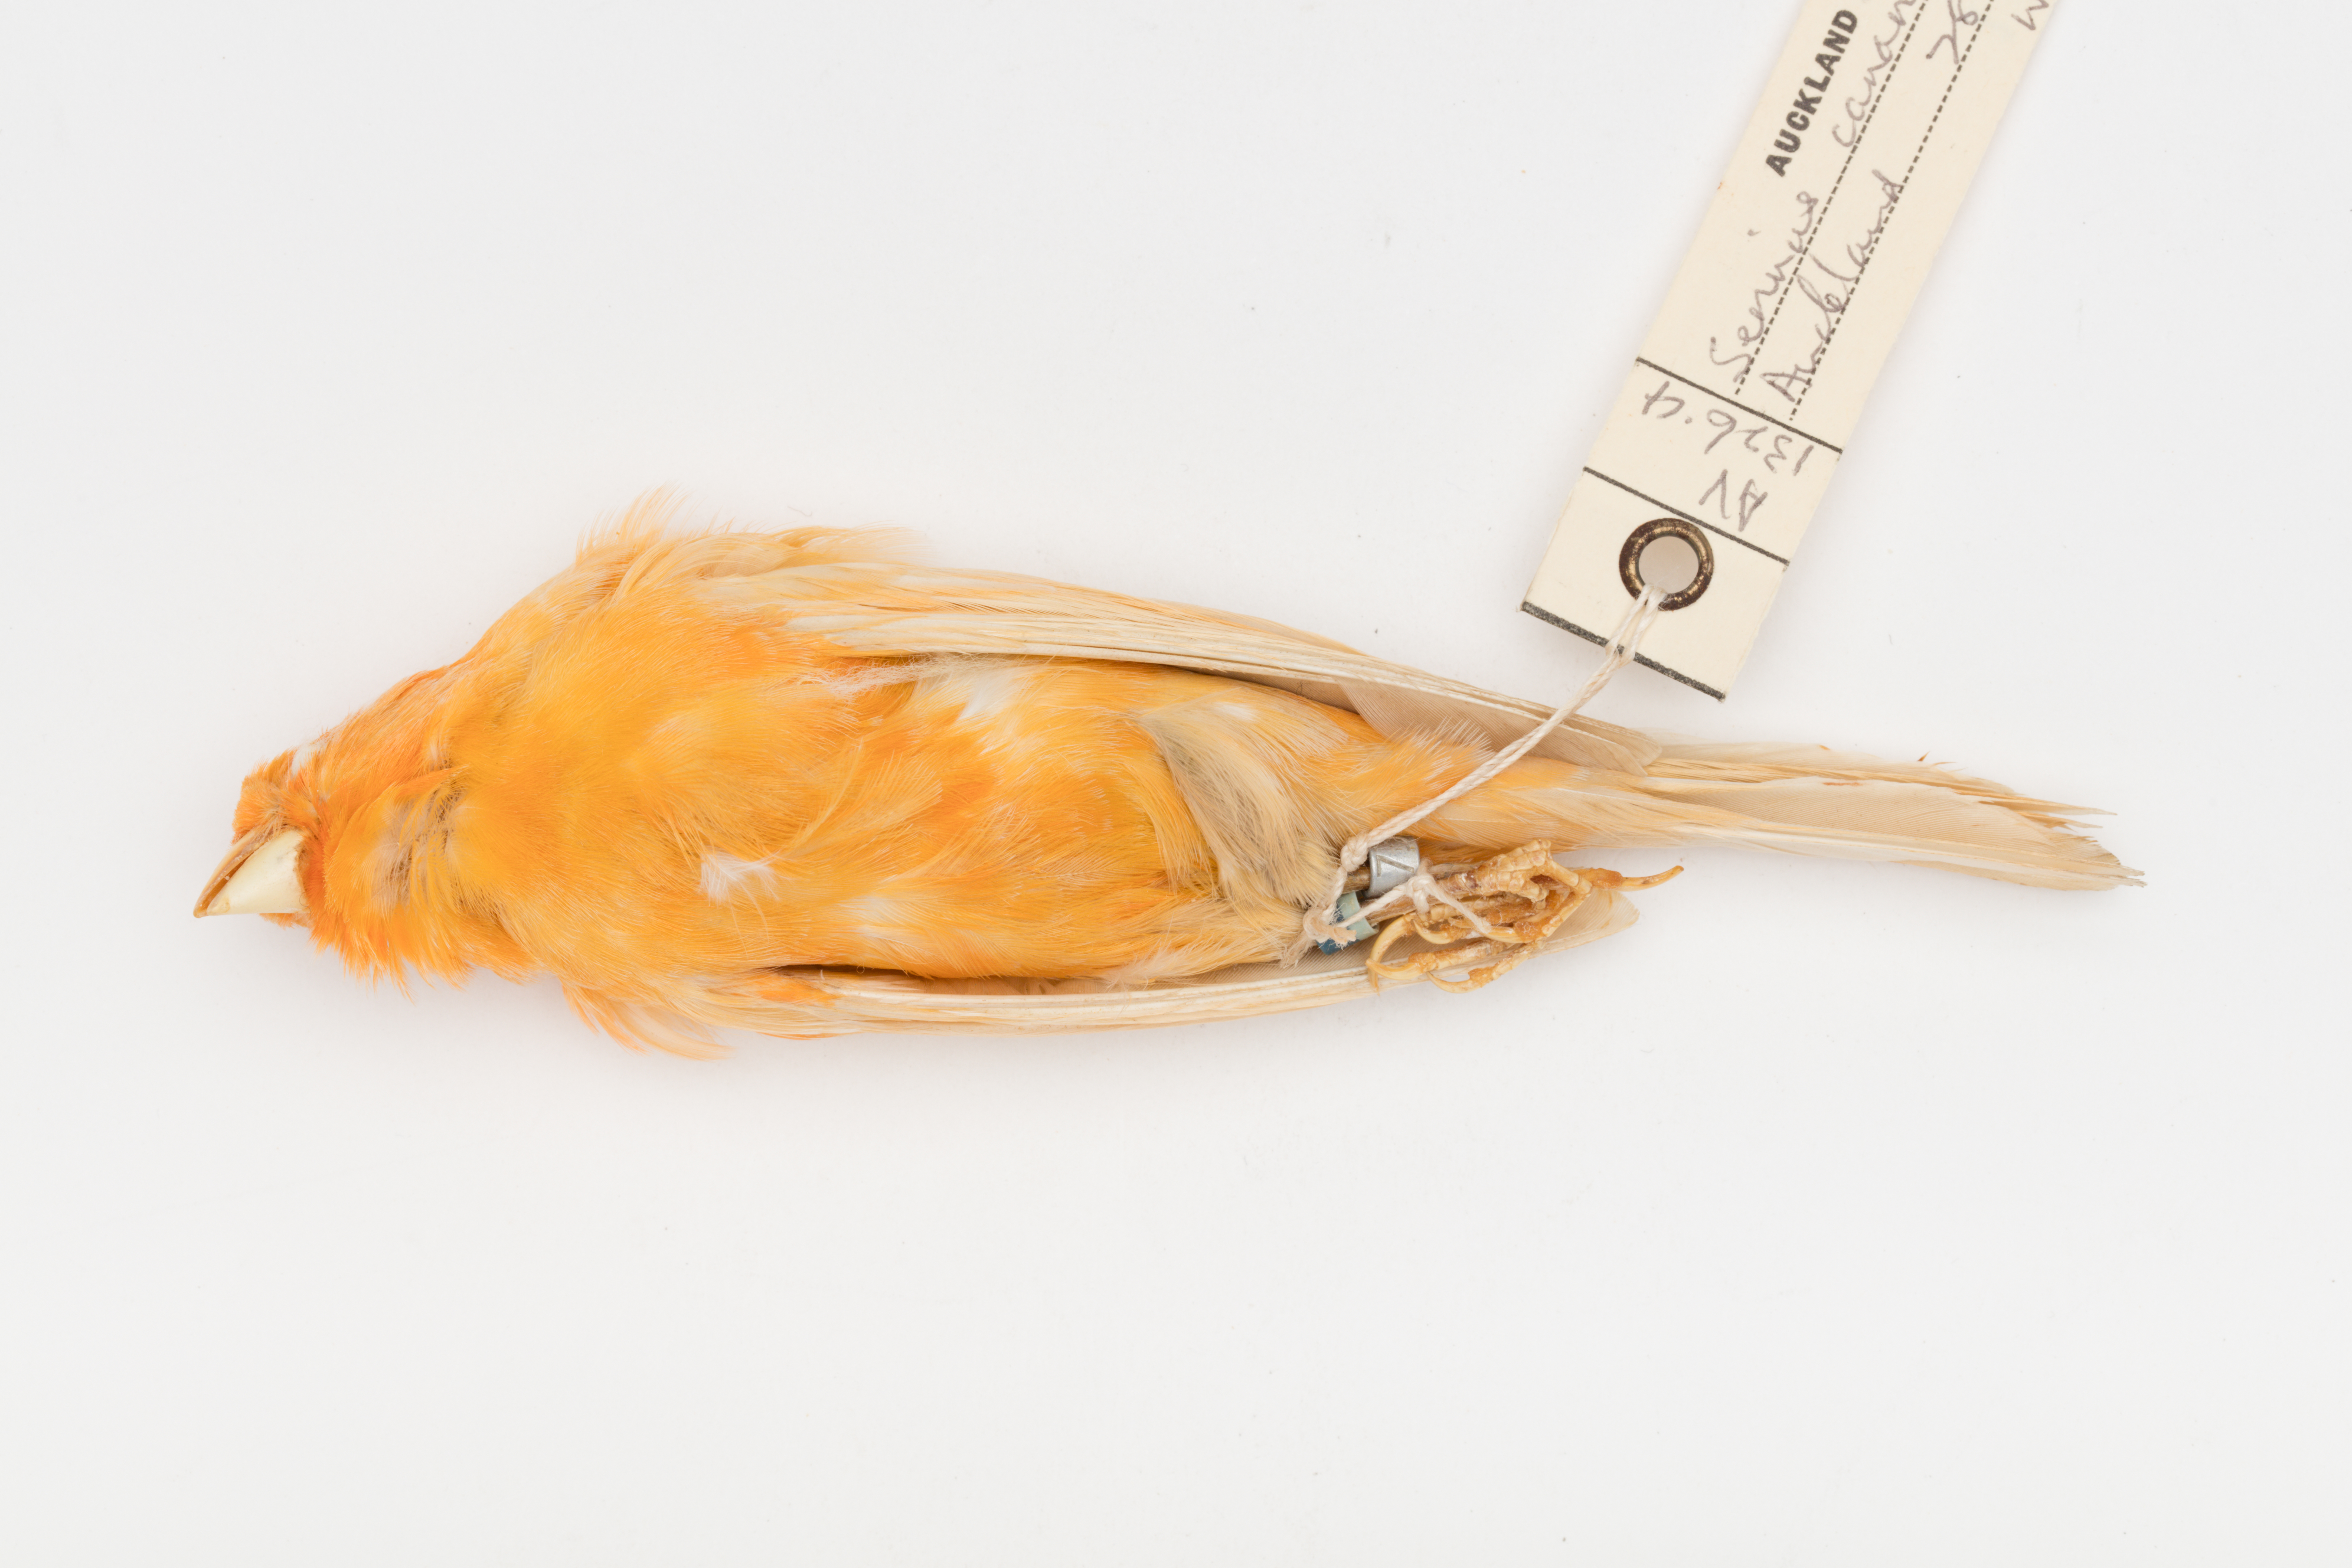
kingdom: Animalia
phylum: Chordata
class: Aves
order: Passeriformes
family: Fringillidae
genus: Serinus
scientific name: Serinus canaria
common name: Atlantic canary
